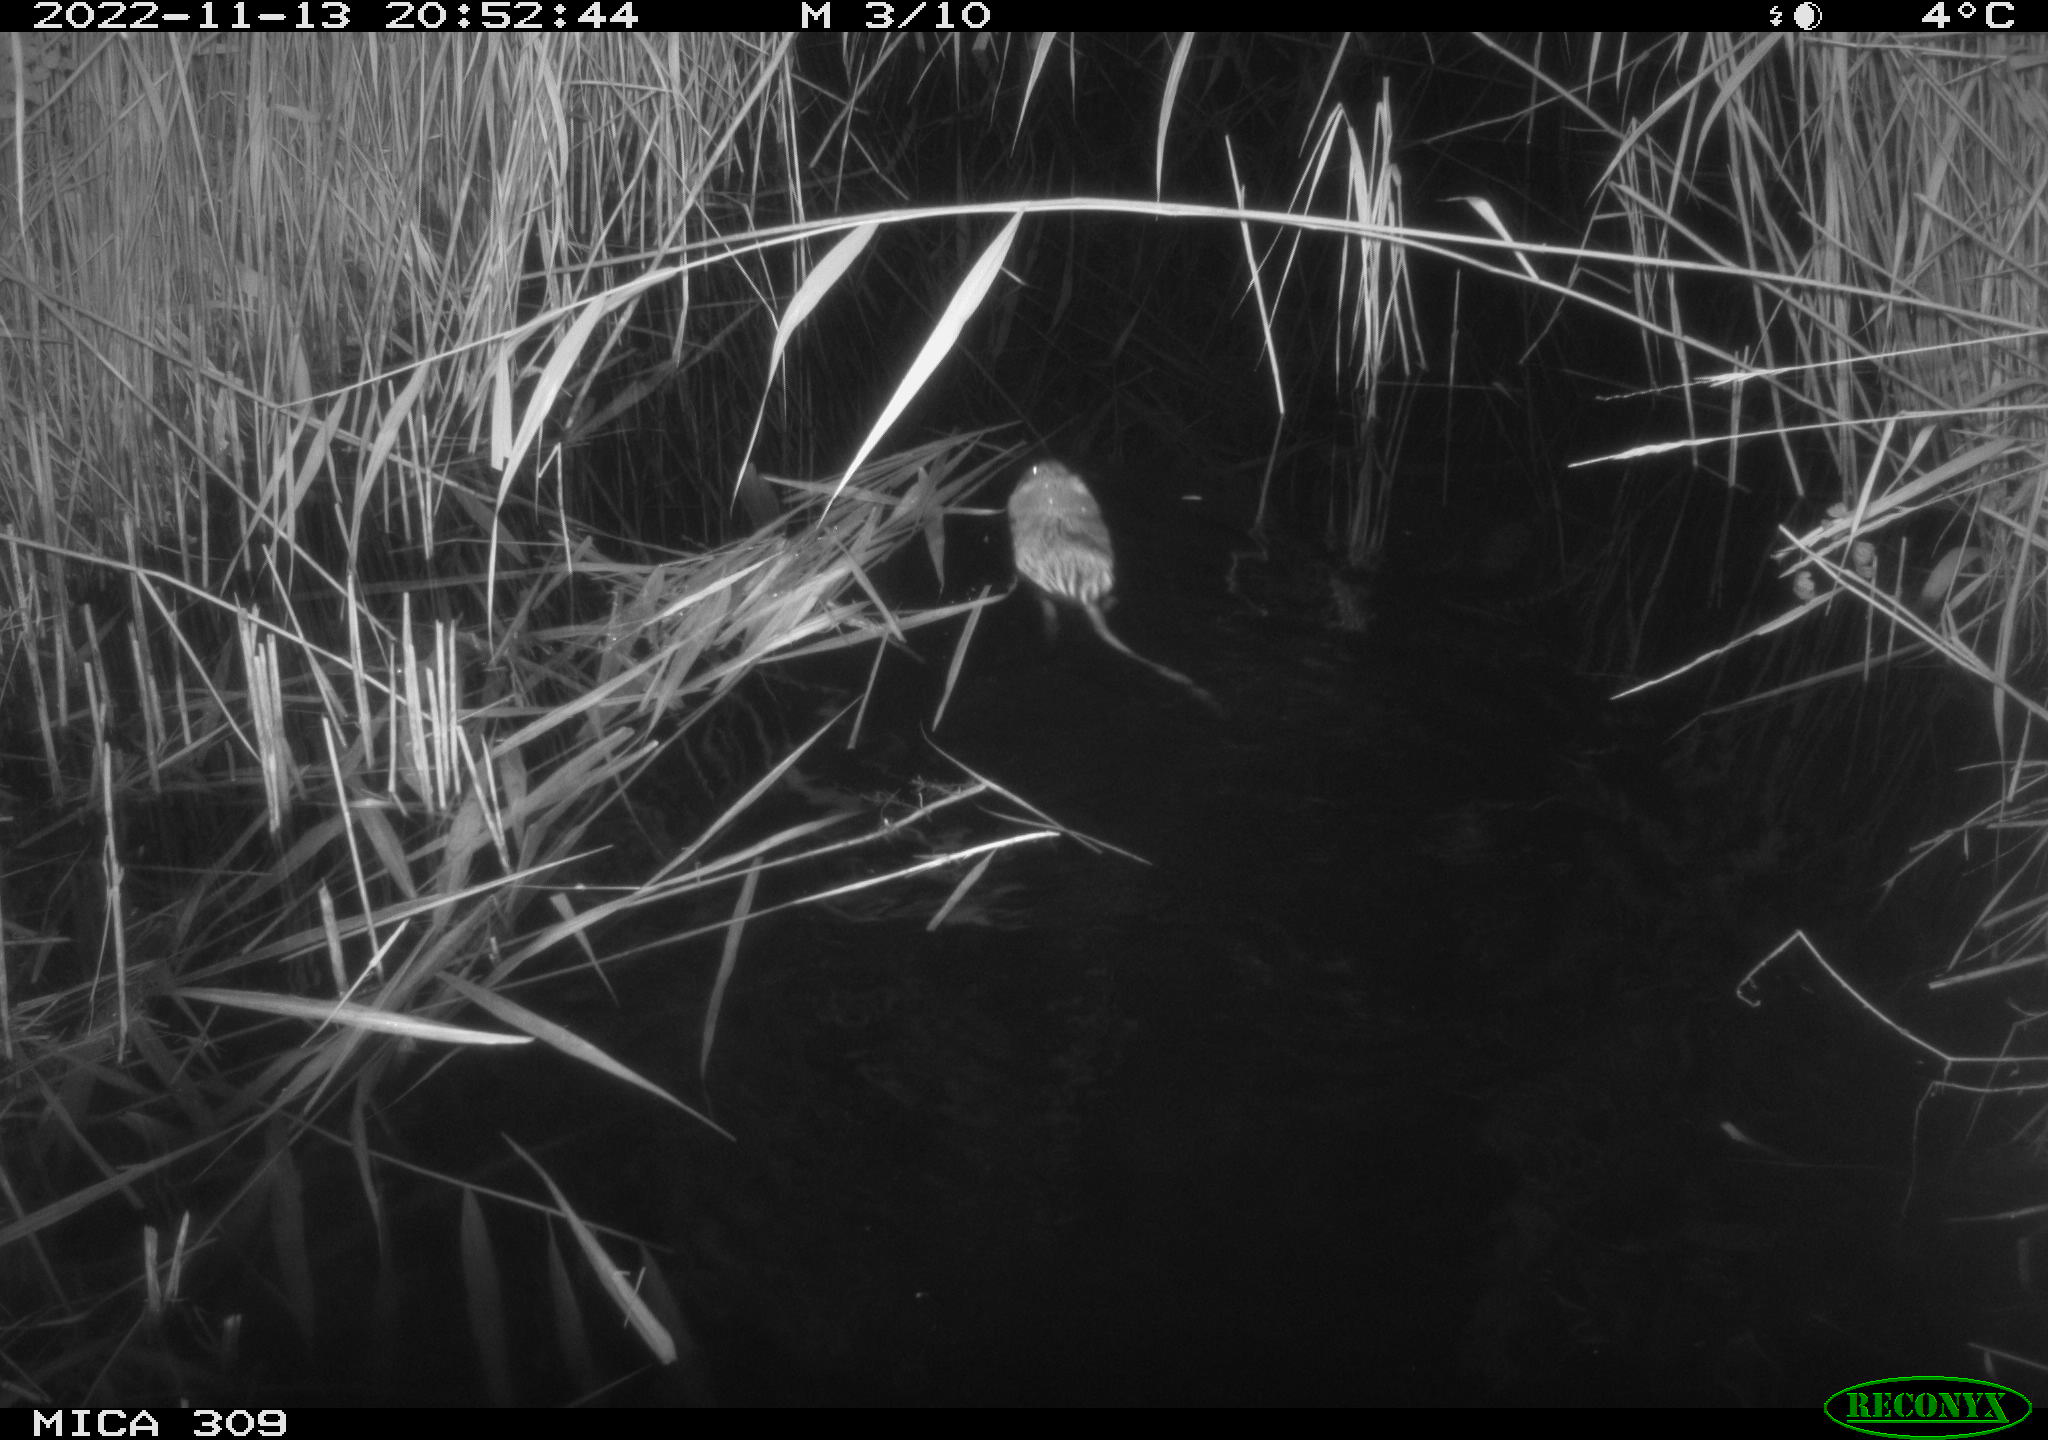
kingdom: Animalia
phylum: Chordata
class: Mammalia
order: Rodentia
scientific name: Rodentia
